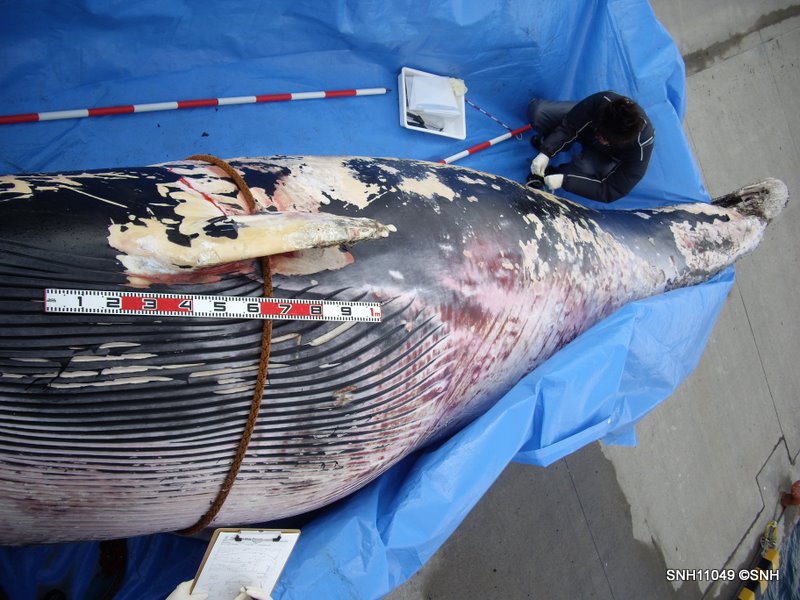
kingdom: Animalia
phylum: Chordata
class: Mammalia
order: Cetacea
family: Balaenopteridae
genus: Balaenoptera
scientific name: Balaenoptera
